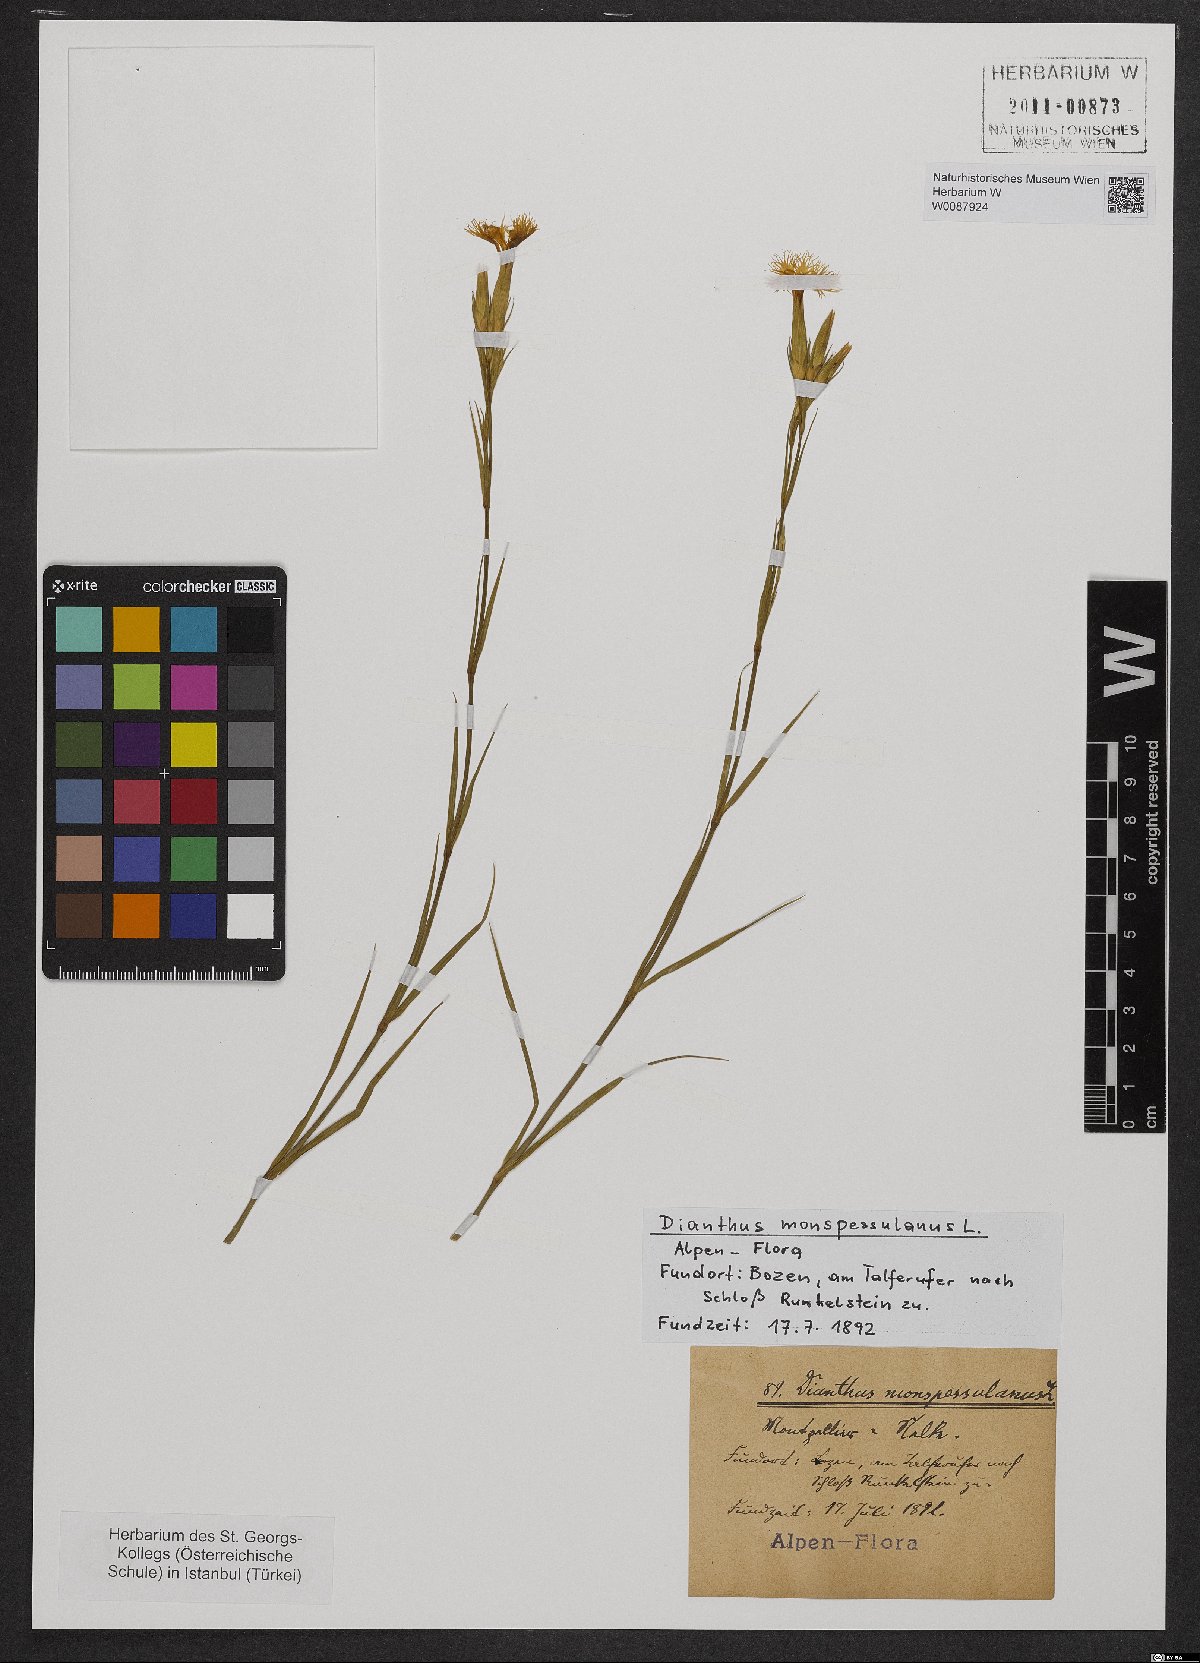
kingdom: Plantae
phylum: Tracheophyta
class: Magnoliopsida
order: Caryophyllales
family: Caryophyllaceae
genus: Dianthus
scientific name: Dianthus hyssopifolius
